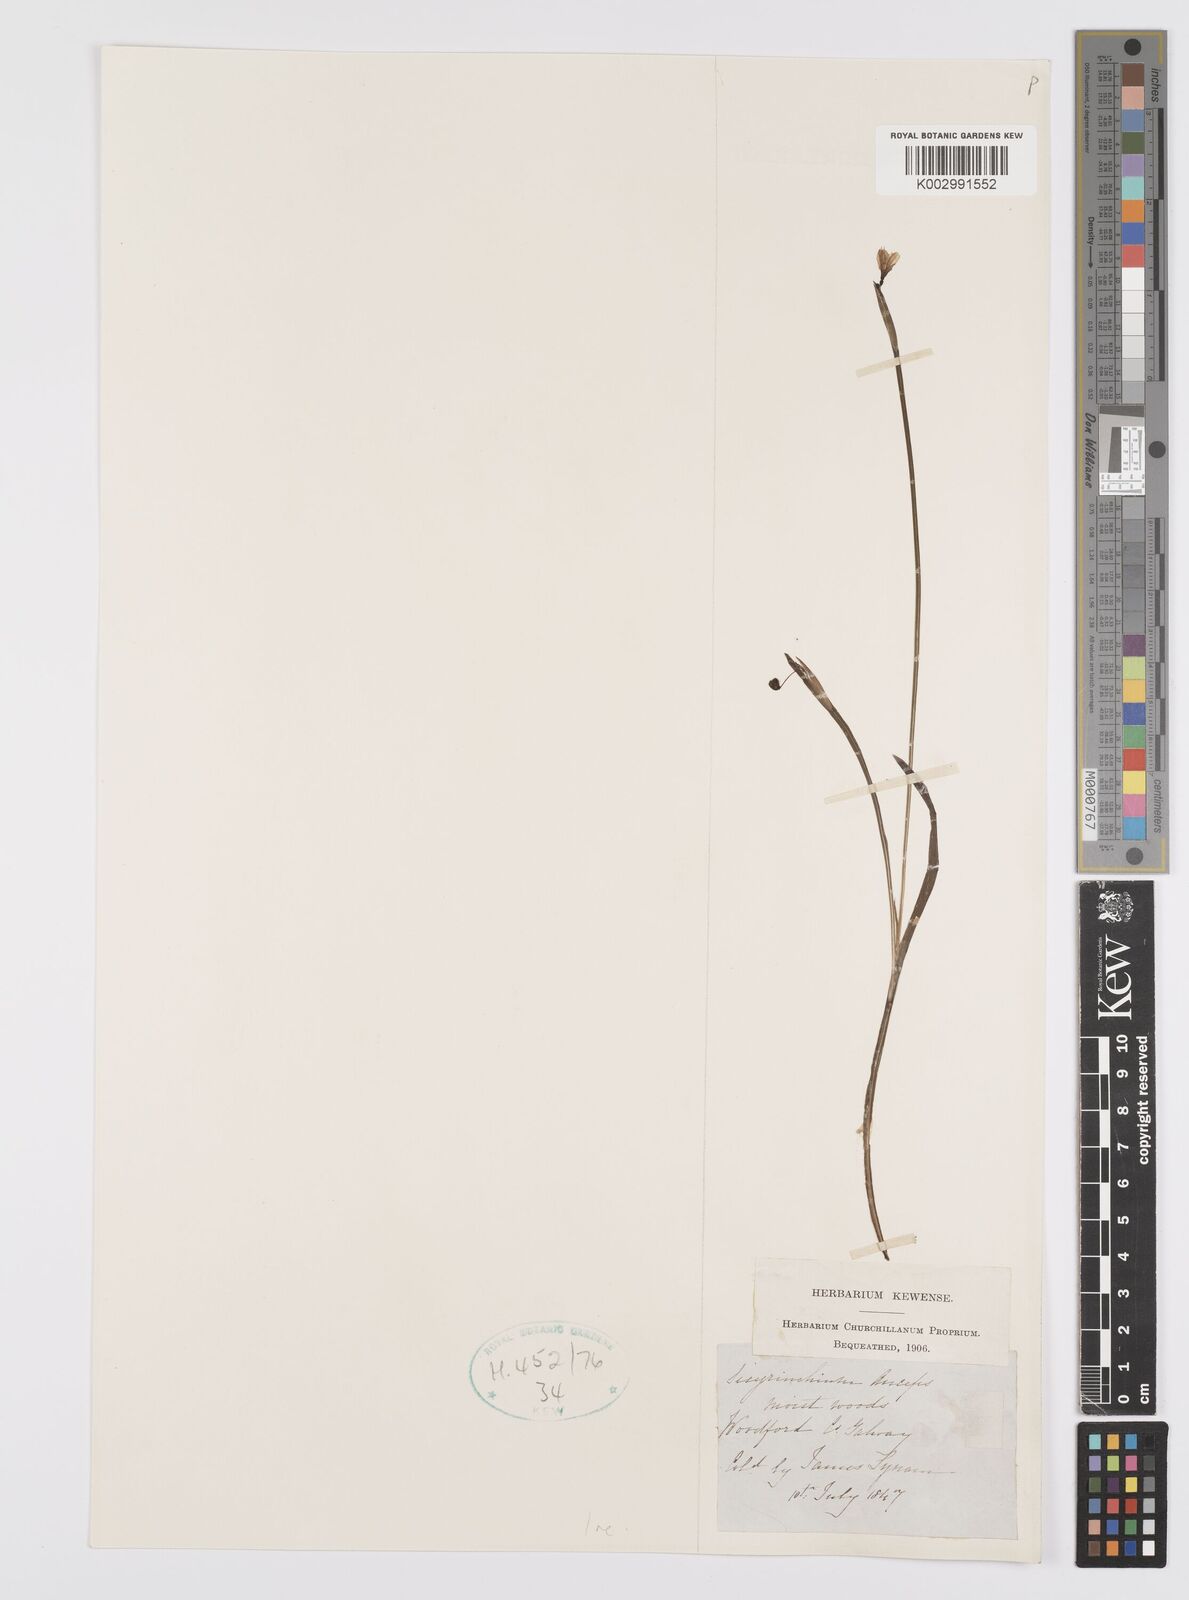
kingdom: Plantae
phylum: Tracheophyta
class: Liliopsida
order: Asparagales
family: Iridaceae
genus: Sisyrinchium
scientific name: Sisyrinchium angustifolium
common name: Narrow-leaf blue-eyed-grass
